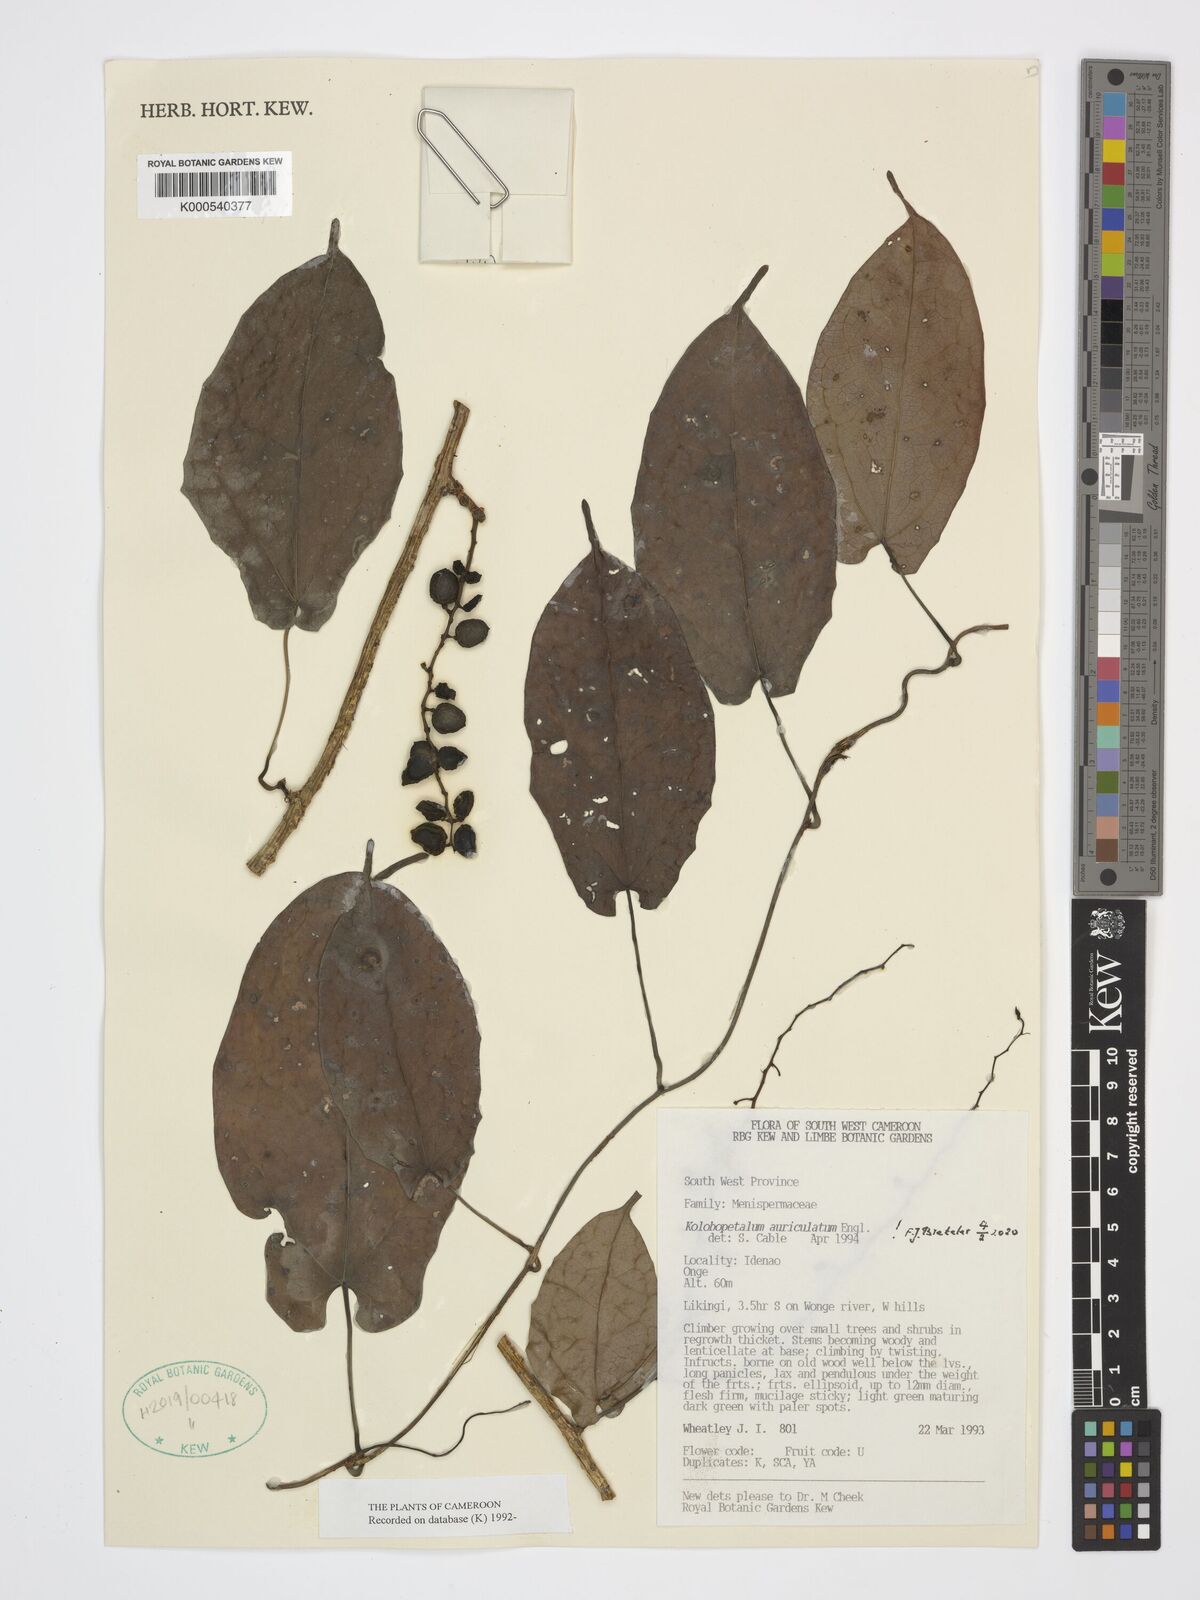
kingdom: Plantae
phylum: Tracheophyta
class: Magnoliopsida
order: Ranunculales
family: Menispermaceae
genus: Kolobopetalum
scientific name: Kolobopetalum auriculatum
